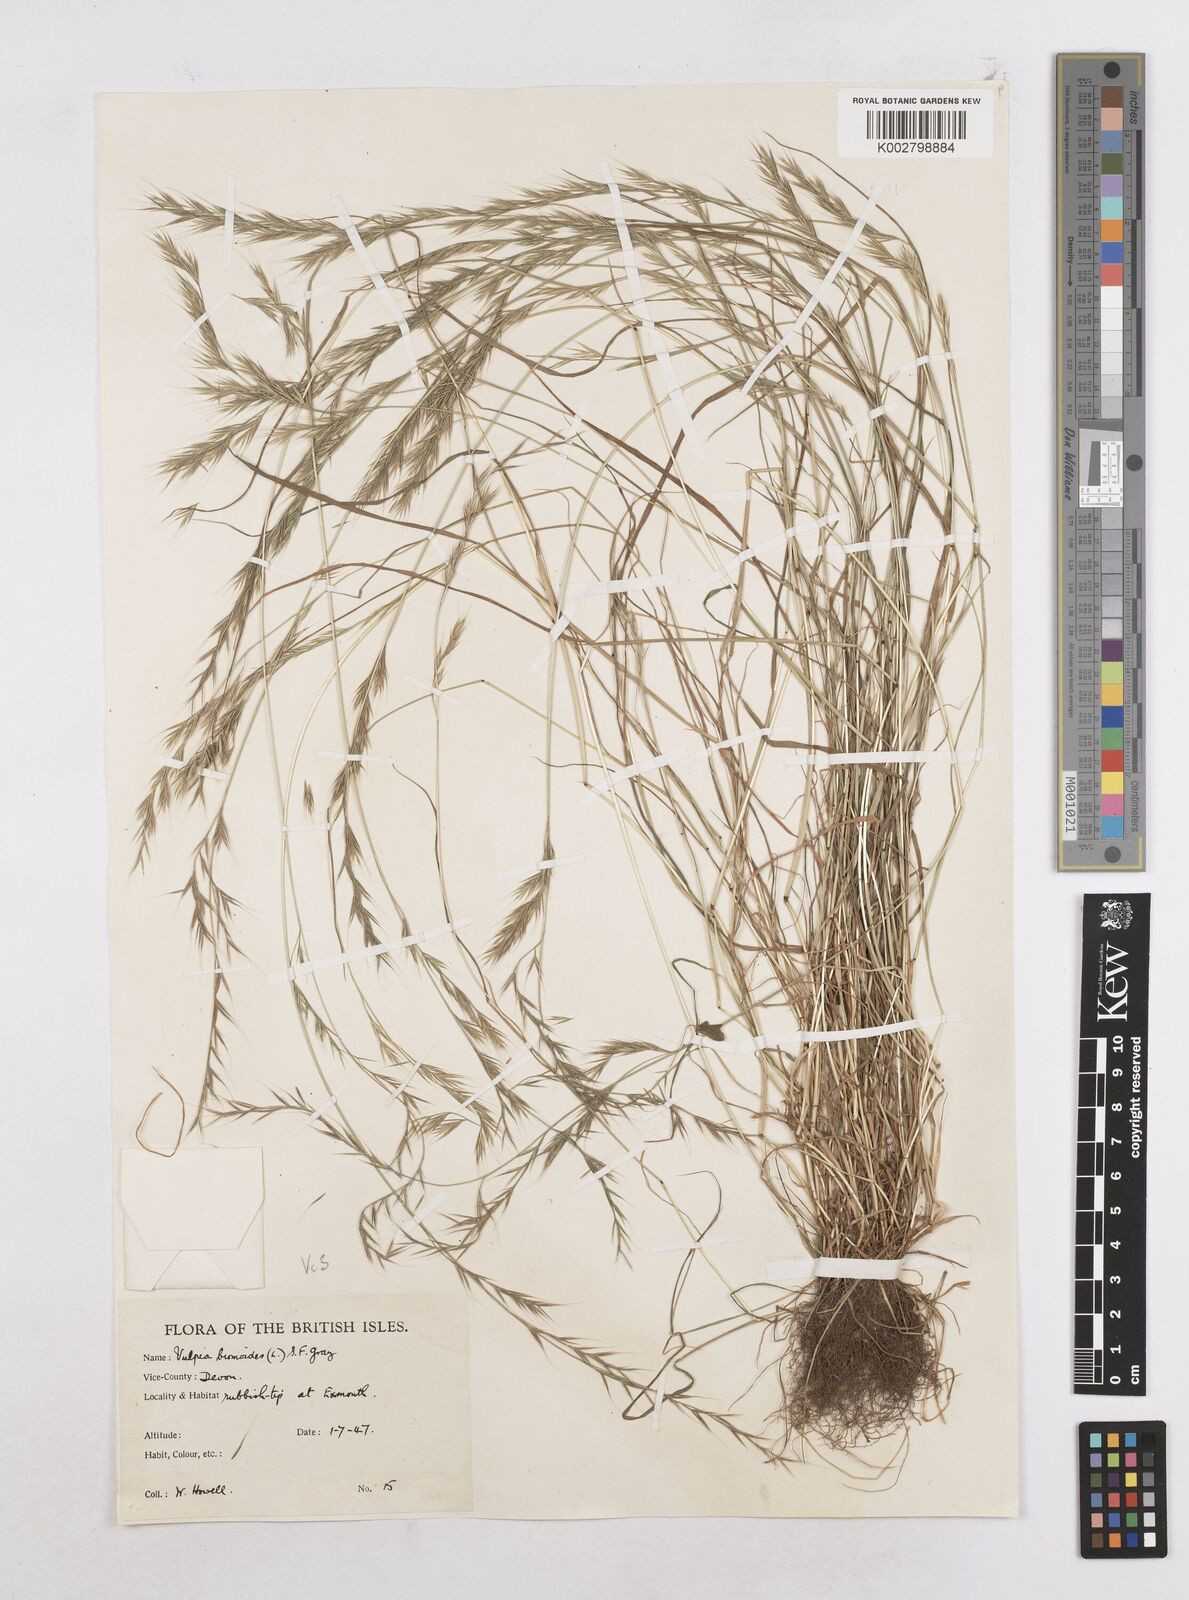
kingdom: Plantae
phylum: Tracheophyta
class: Liliopsida
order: Poales
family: Poaceae
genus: Festuca
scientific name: Festuca bromoides
